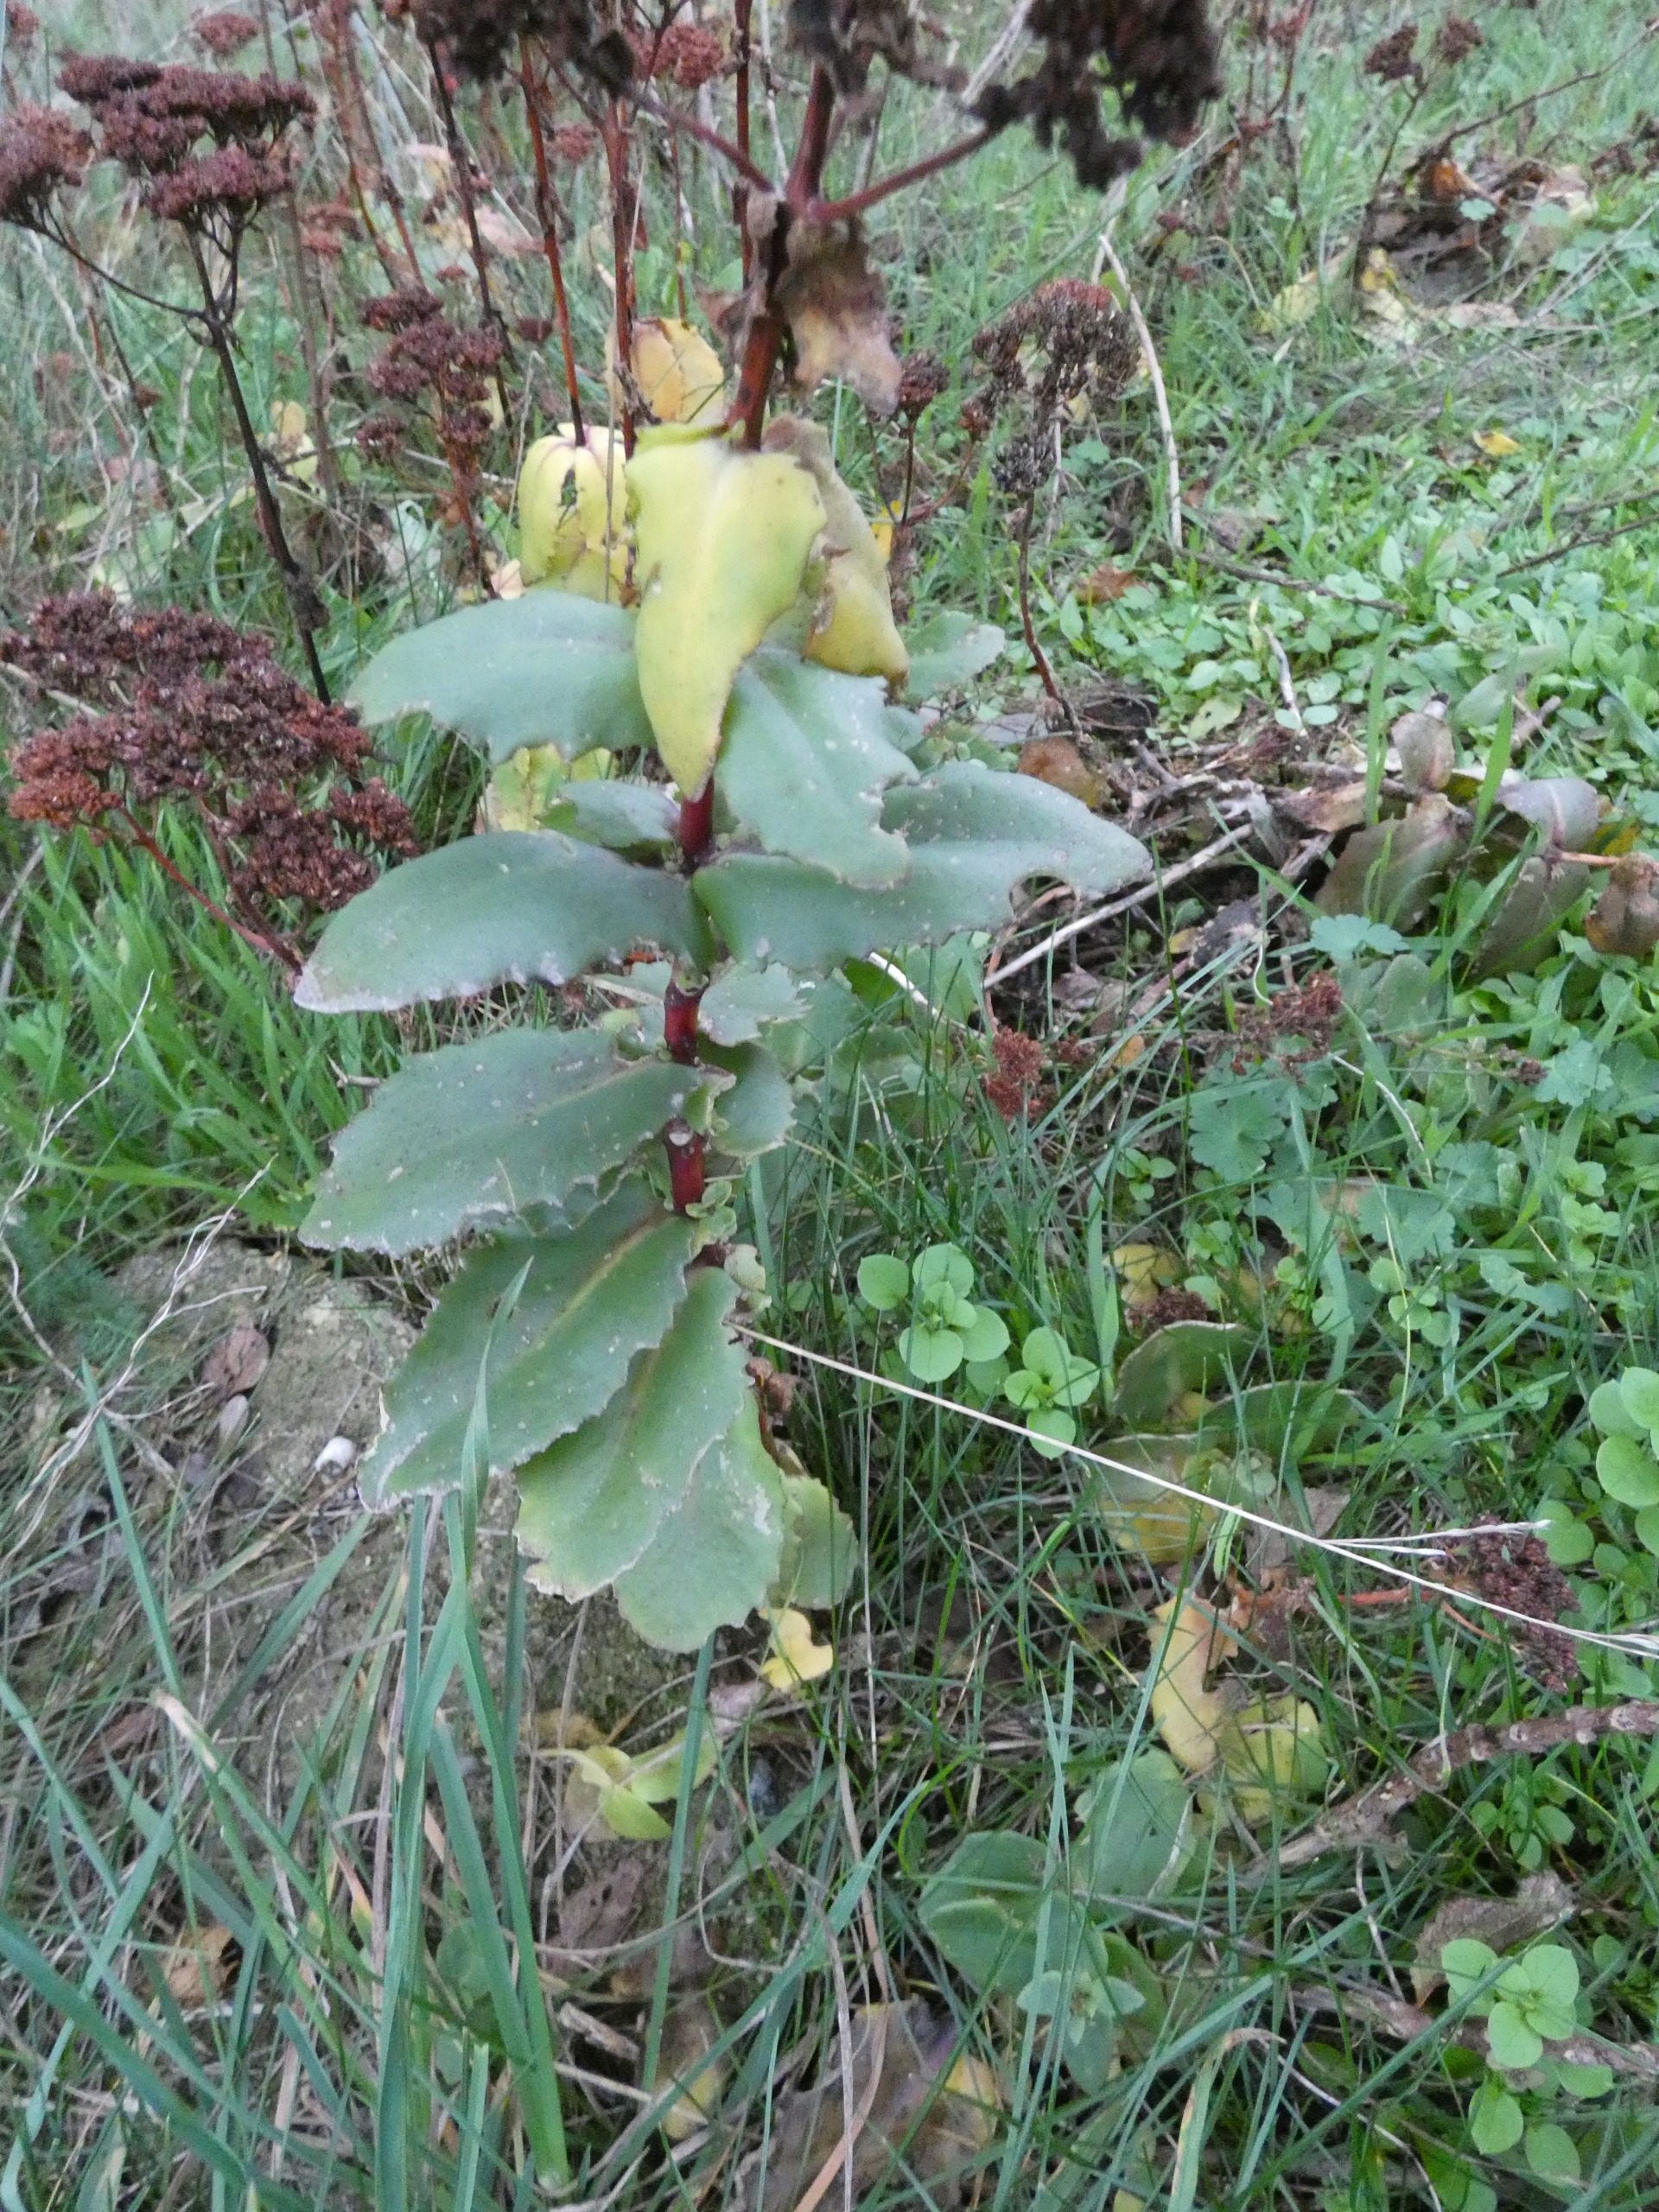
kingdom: Plantae
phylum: Tracheophyta
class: Magnoliopsida
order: Saxifragales
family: Crassulaceae
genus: Hylotelephium
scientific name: Hylotelephium maximum
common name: Almindelig sankthansurt
